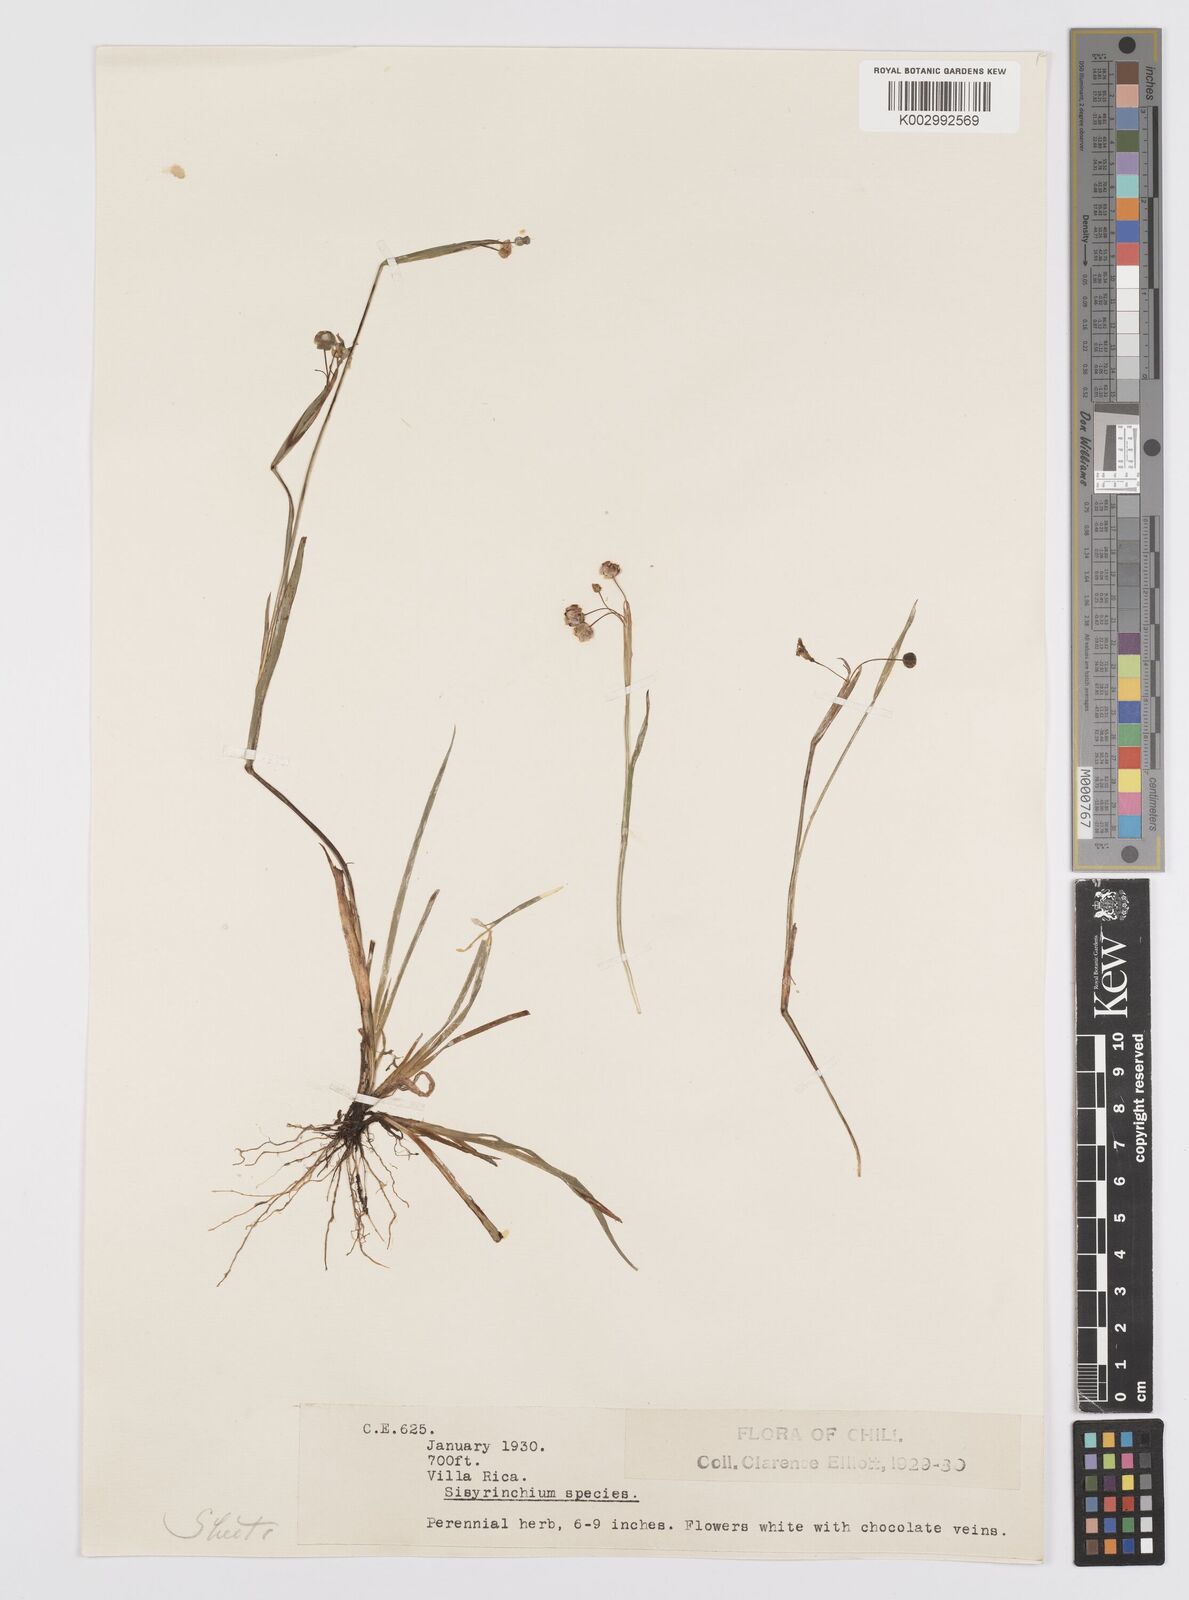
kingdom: Plantae
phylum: Tracheophyta
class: Liliopsida
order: Asparagales
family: Iridaceae
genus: Sisyrinchium
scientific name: Sisyrinchium micranthum
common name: Bermuda pigroot
